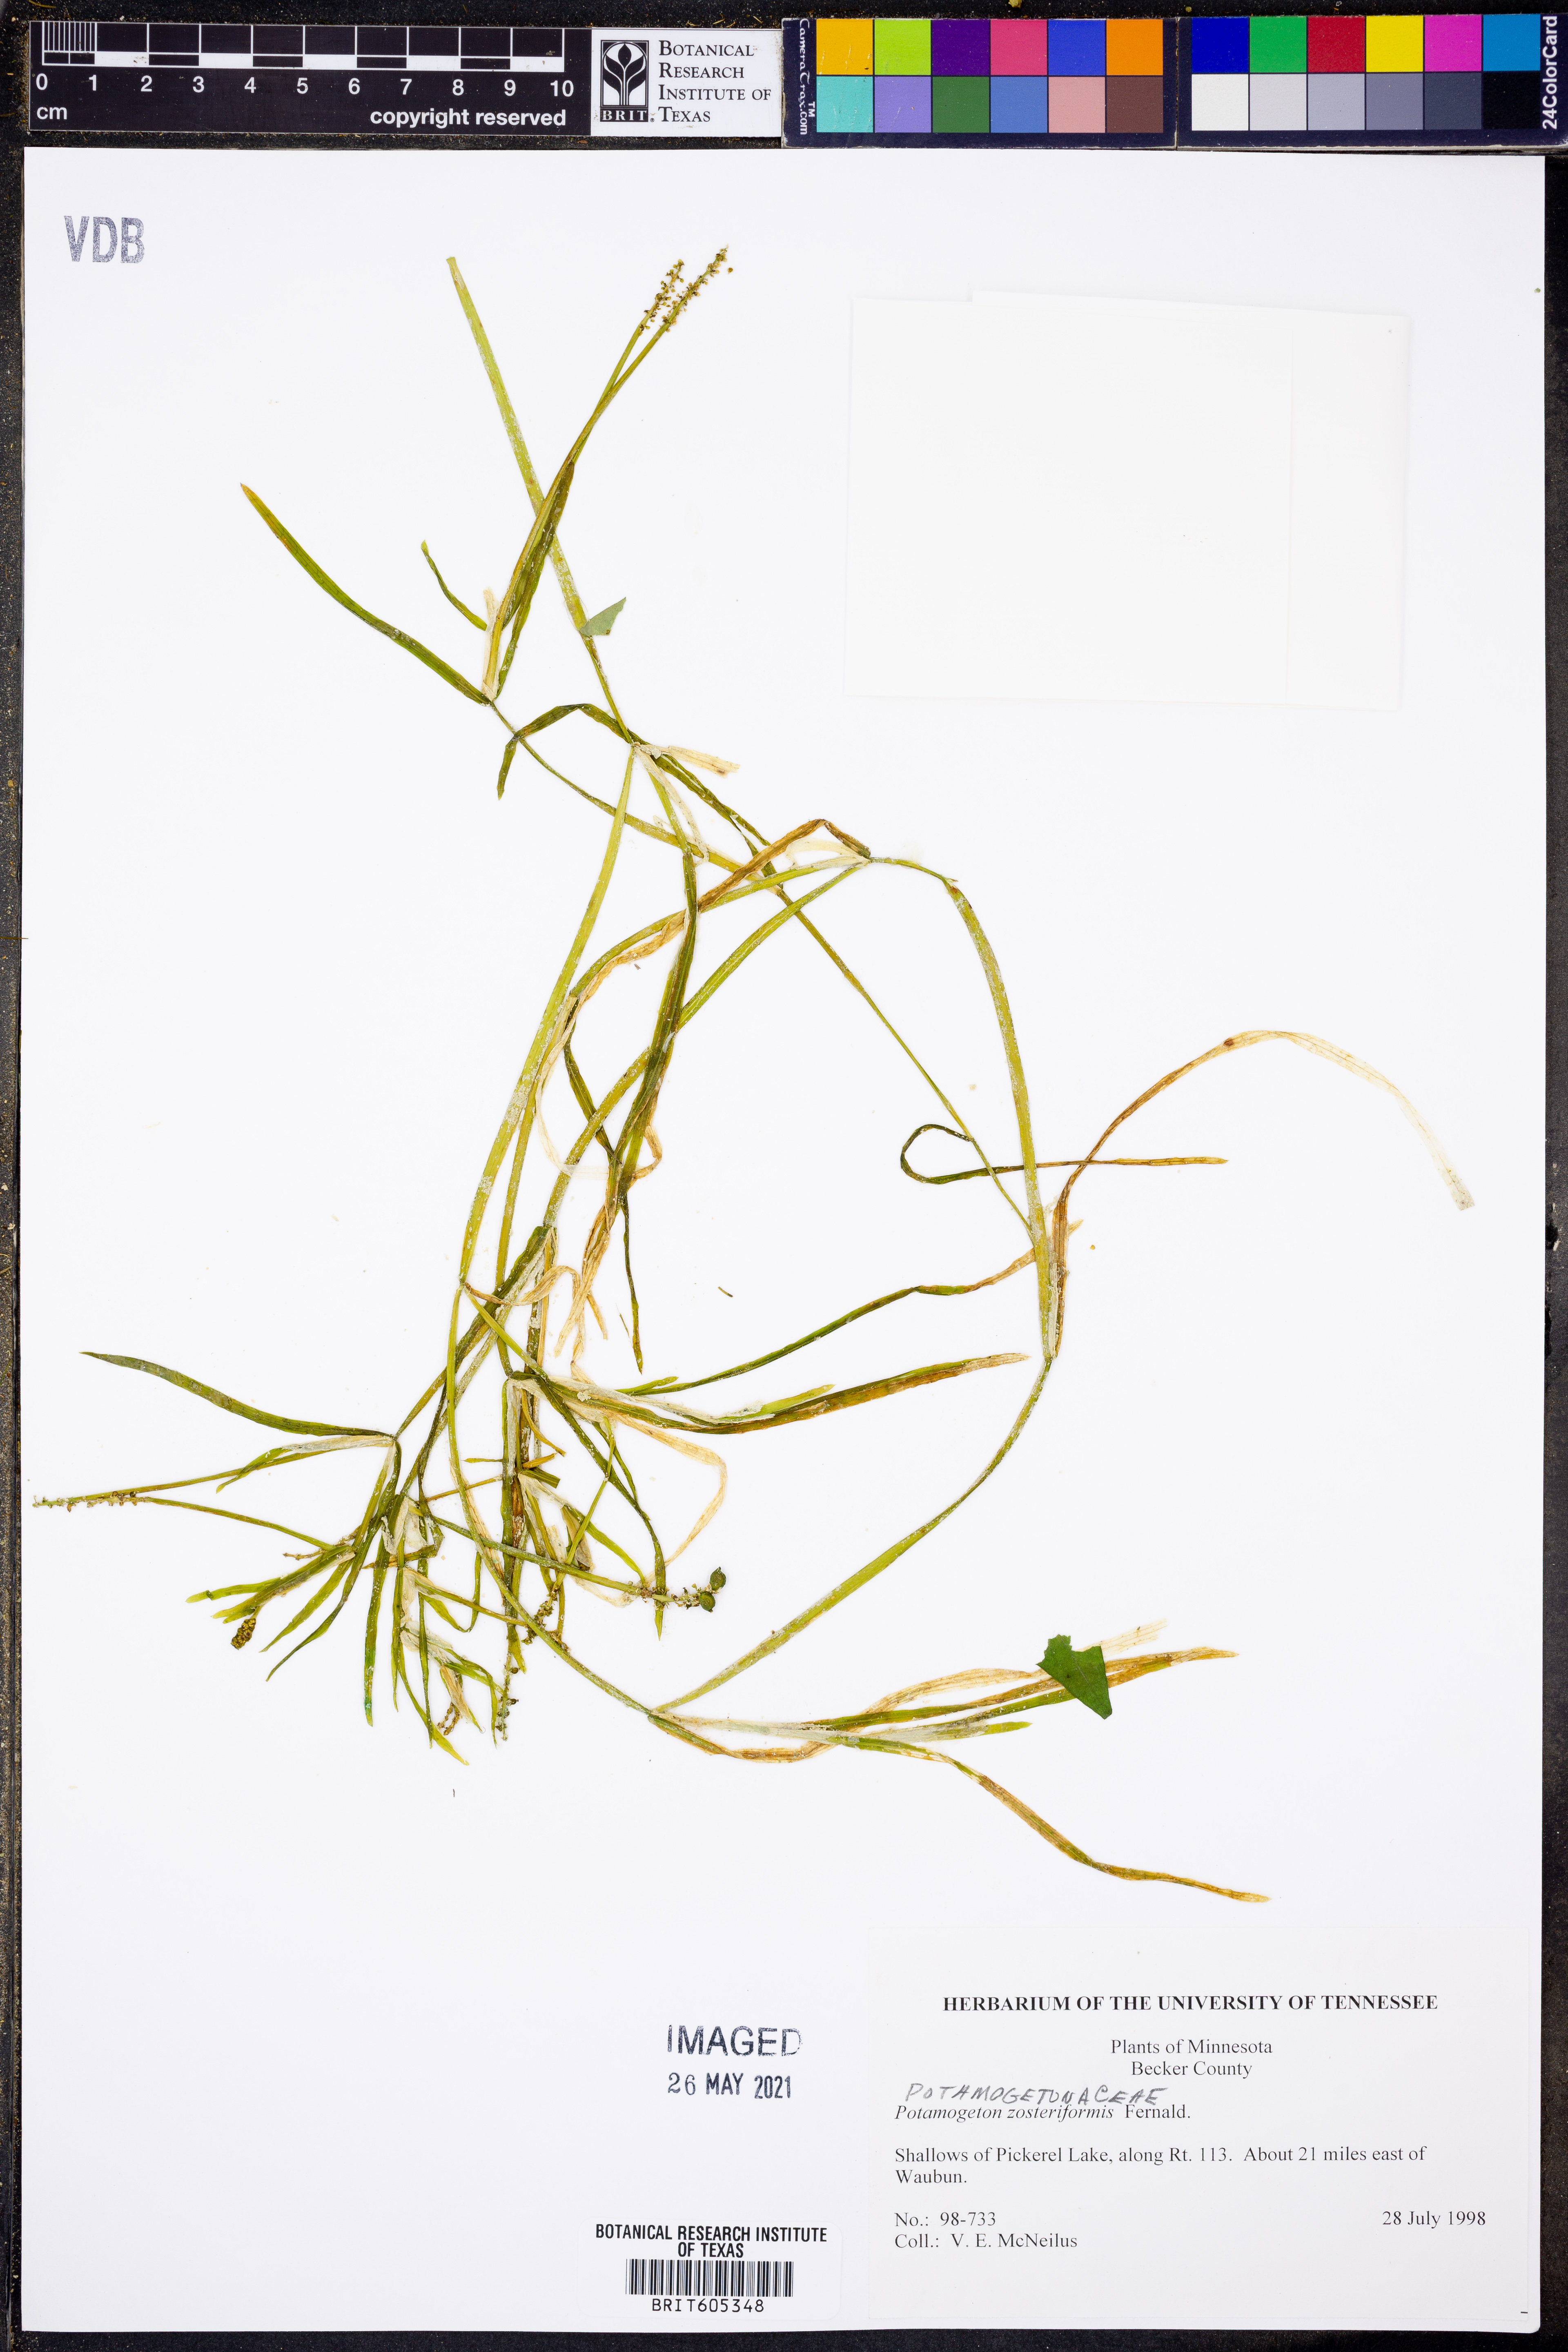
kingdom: Plantae
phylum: Tracheophyta
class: Liliopsida
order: Alismatales
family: Potamogetonaceae
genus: Potamogeton
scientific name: Potamogeton zosteriformis
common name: Eelgrass pondweed
